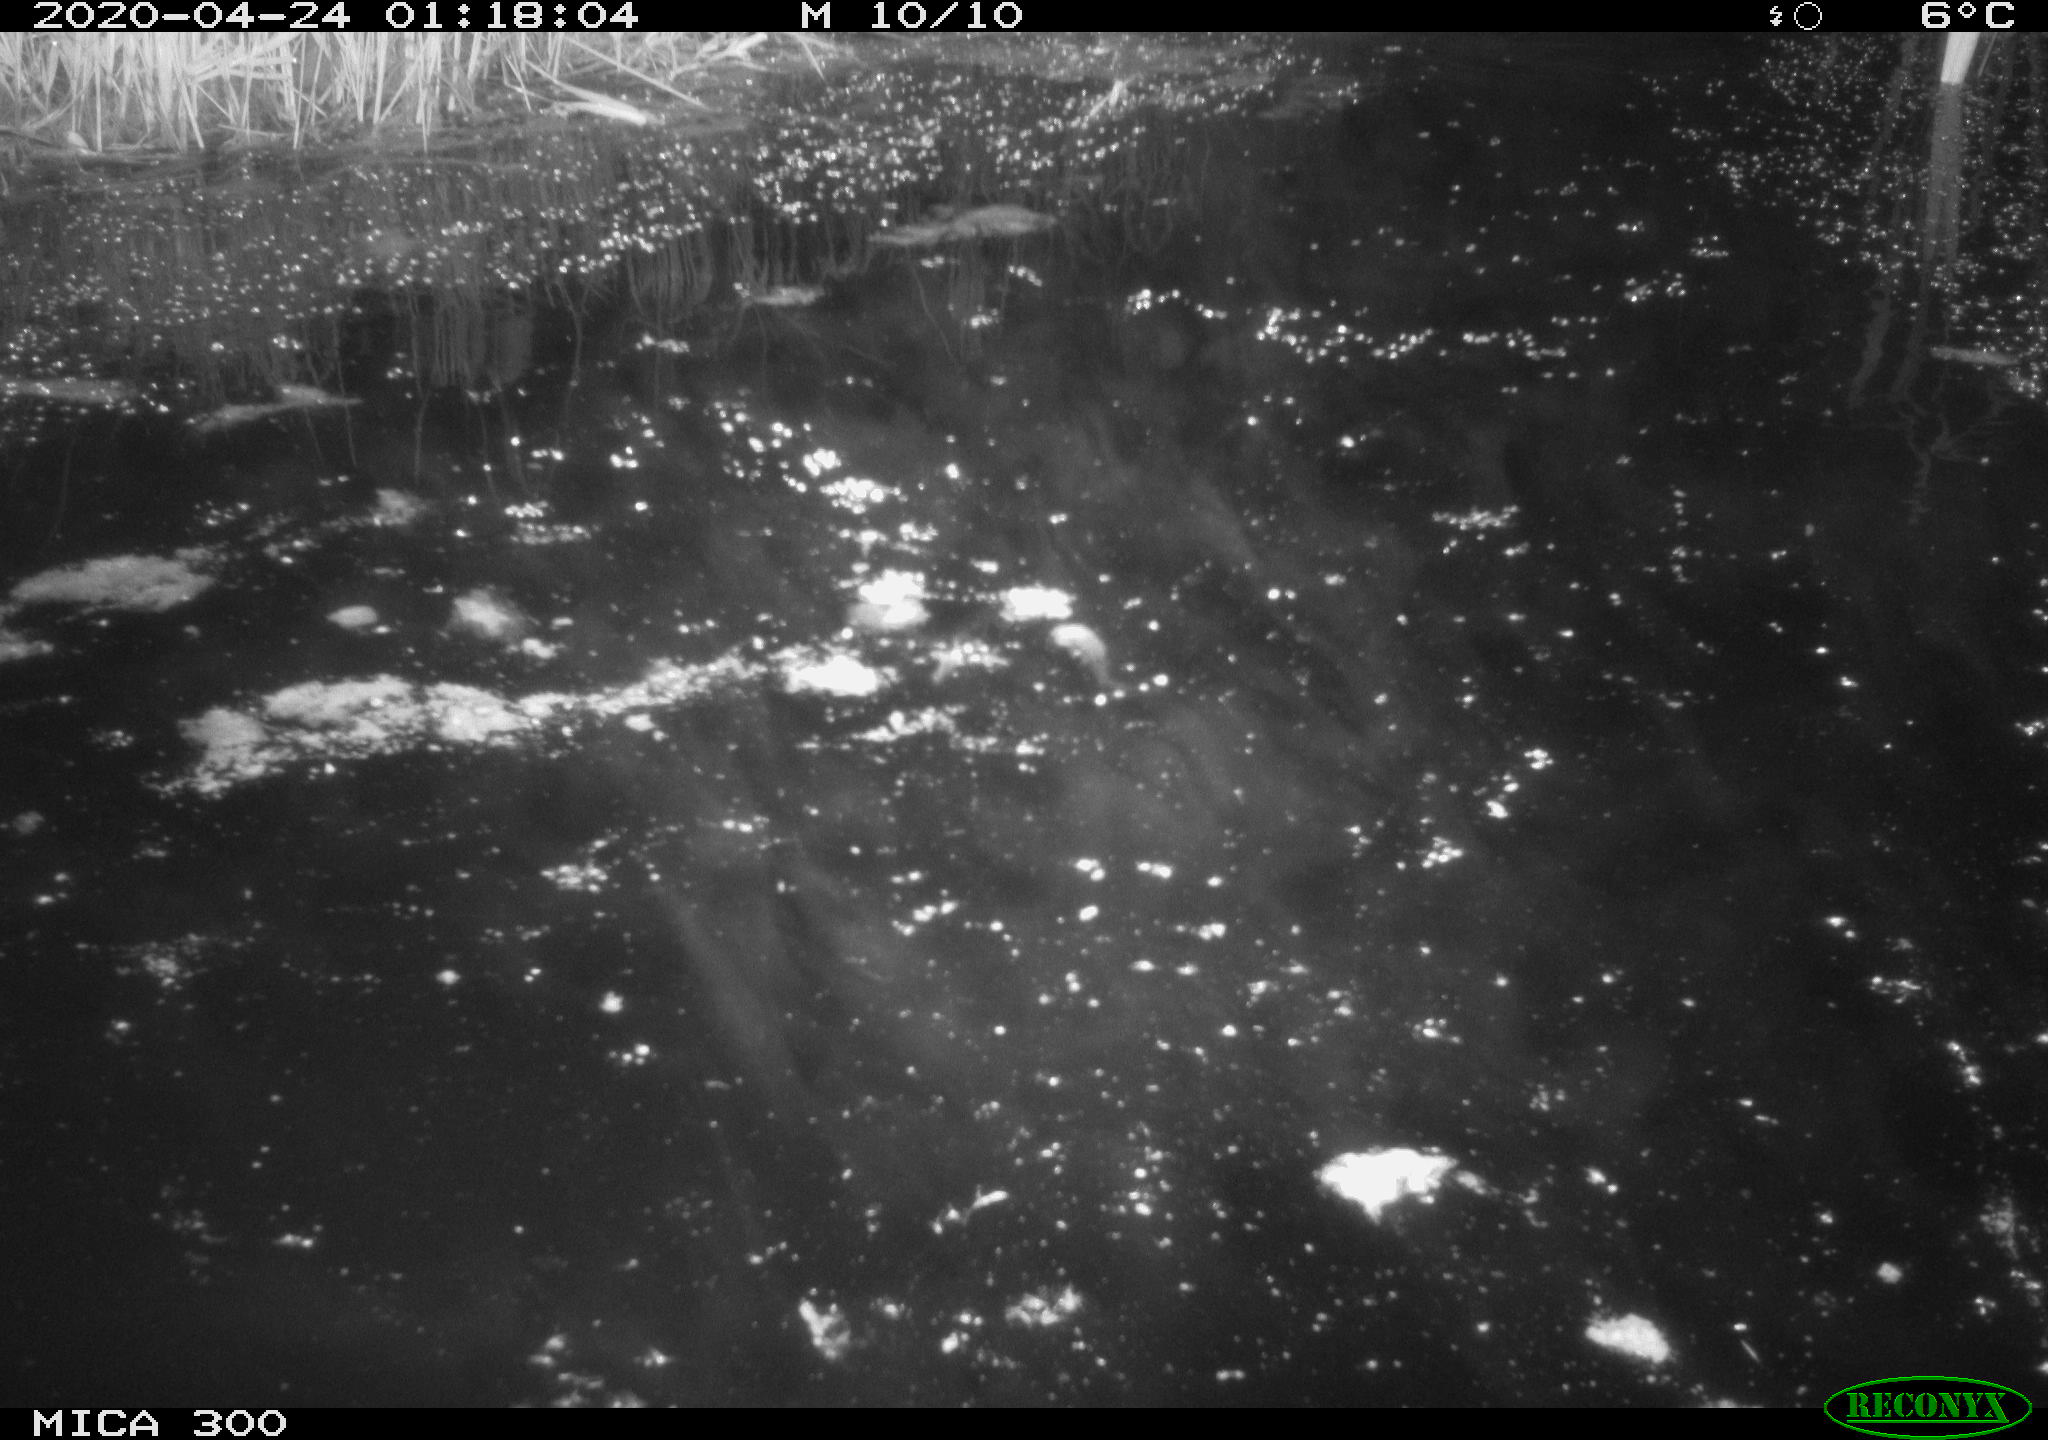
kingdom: Animalia
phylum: Chordata
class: Mammalia
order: Rodentia
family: Castoridae
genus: Castor
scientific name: Castor fiber
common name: Eurasian beaver
